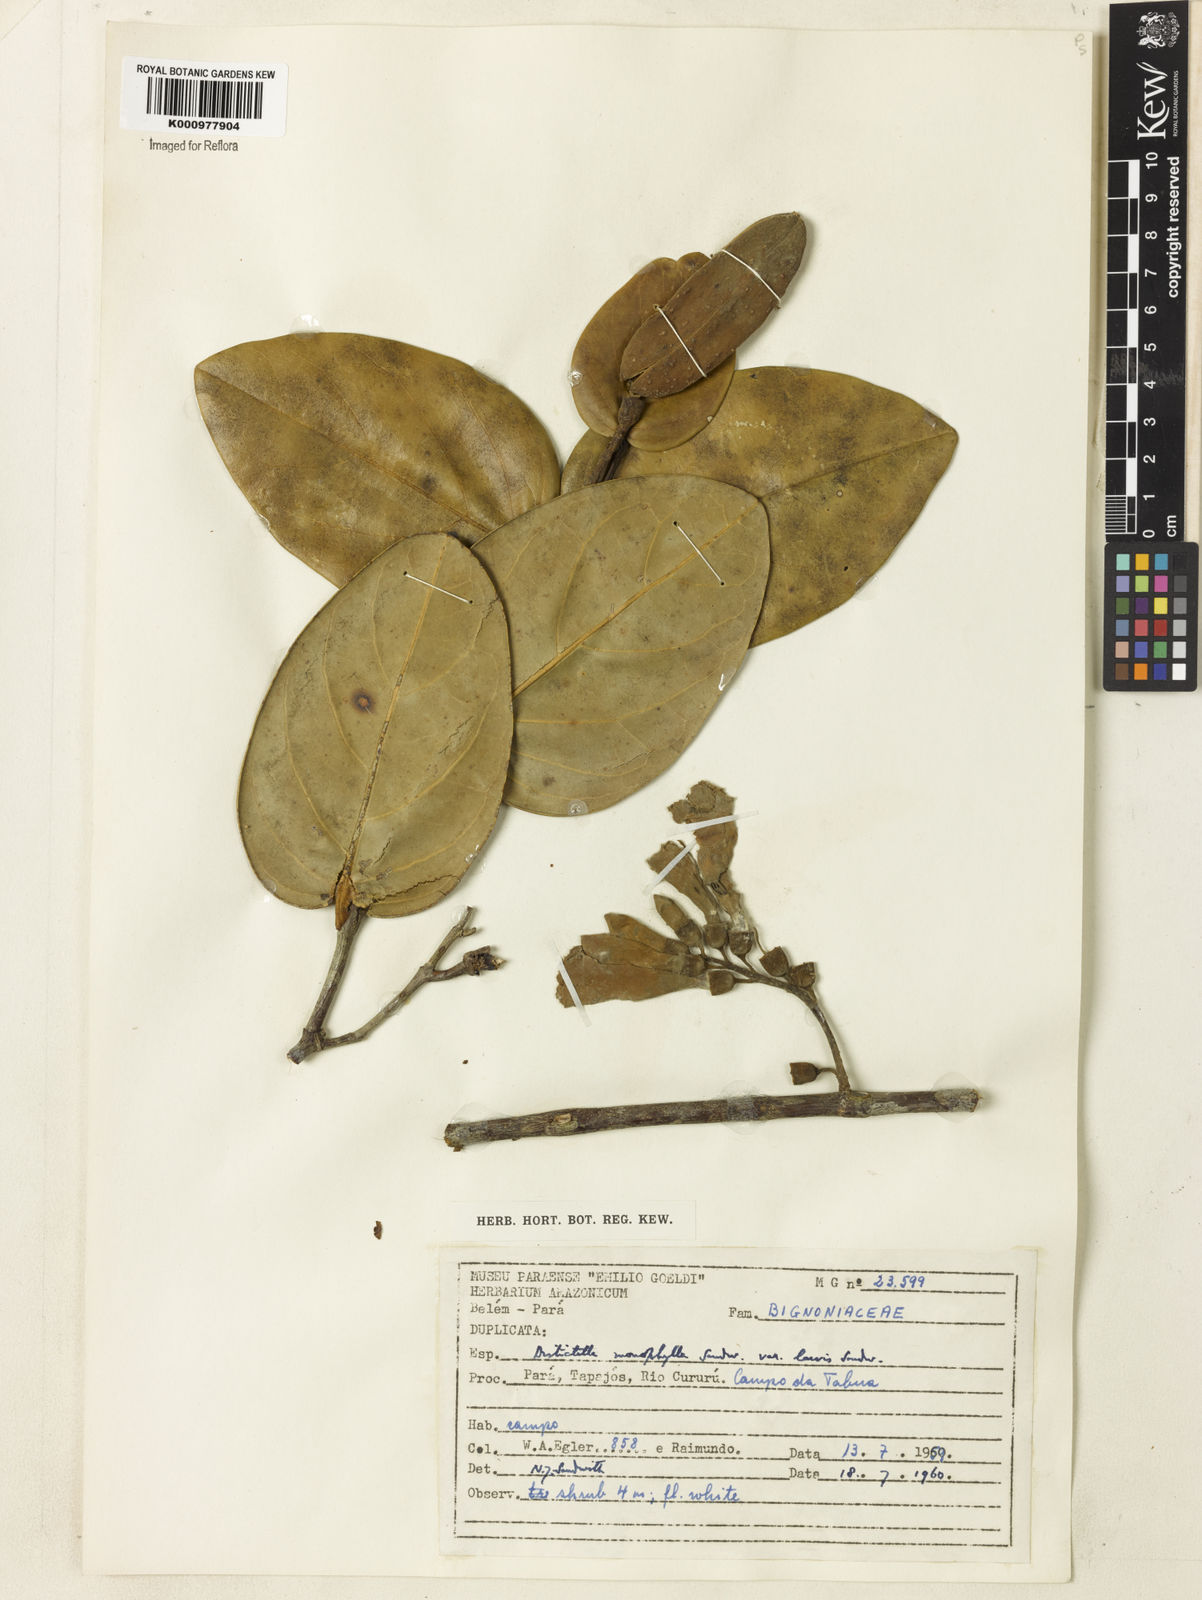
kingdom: Plantae
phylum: Tracheophyta
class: Magnoliopsida
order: Lamiales
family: Bignoniaceae
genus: Amphilophium
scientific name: Amphilophium magnoliifolium
